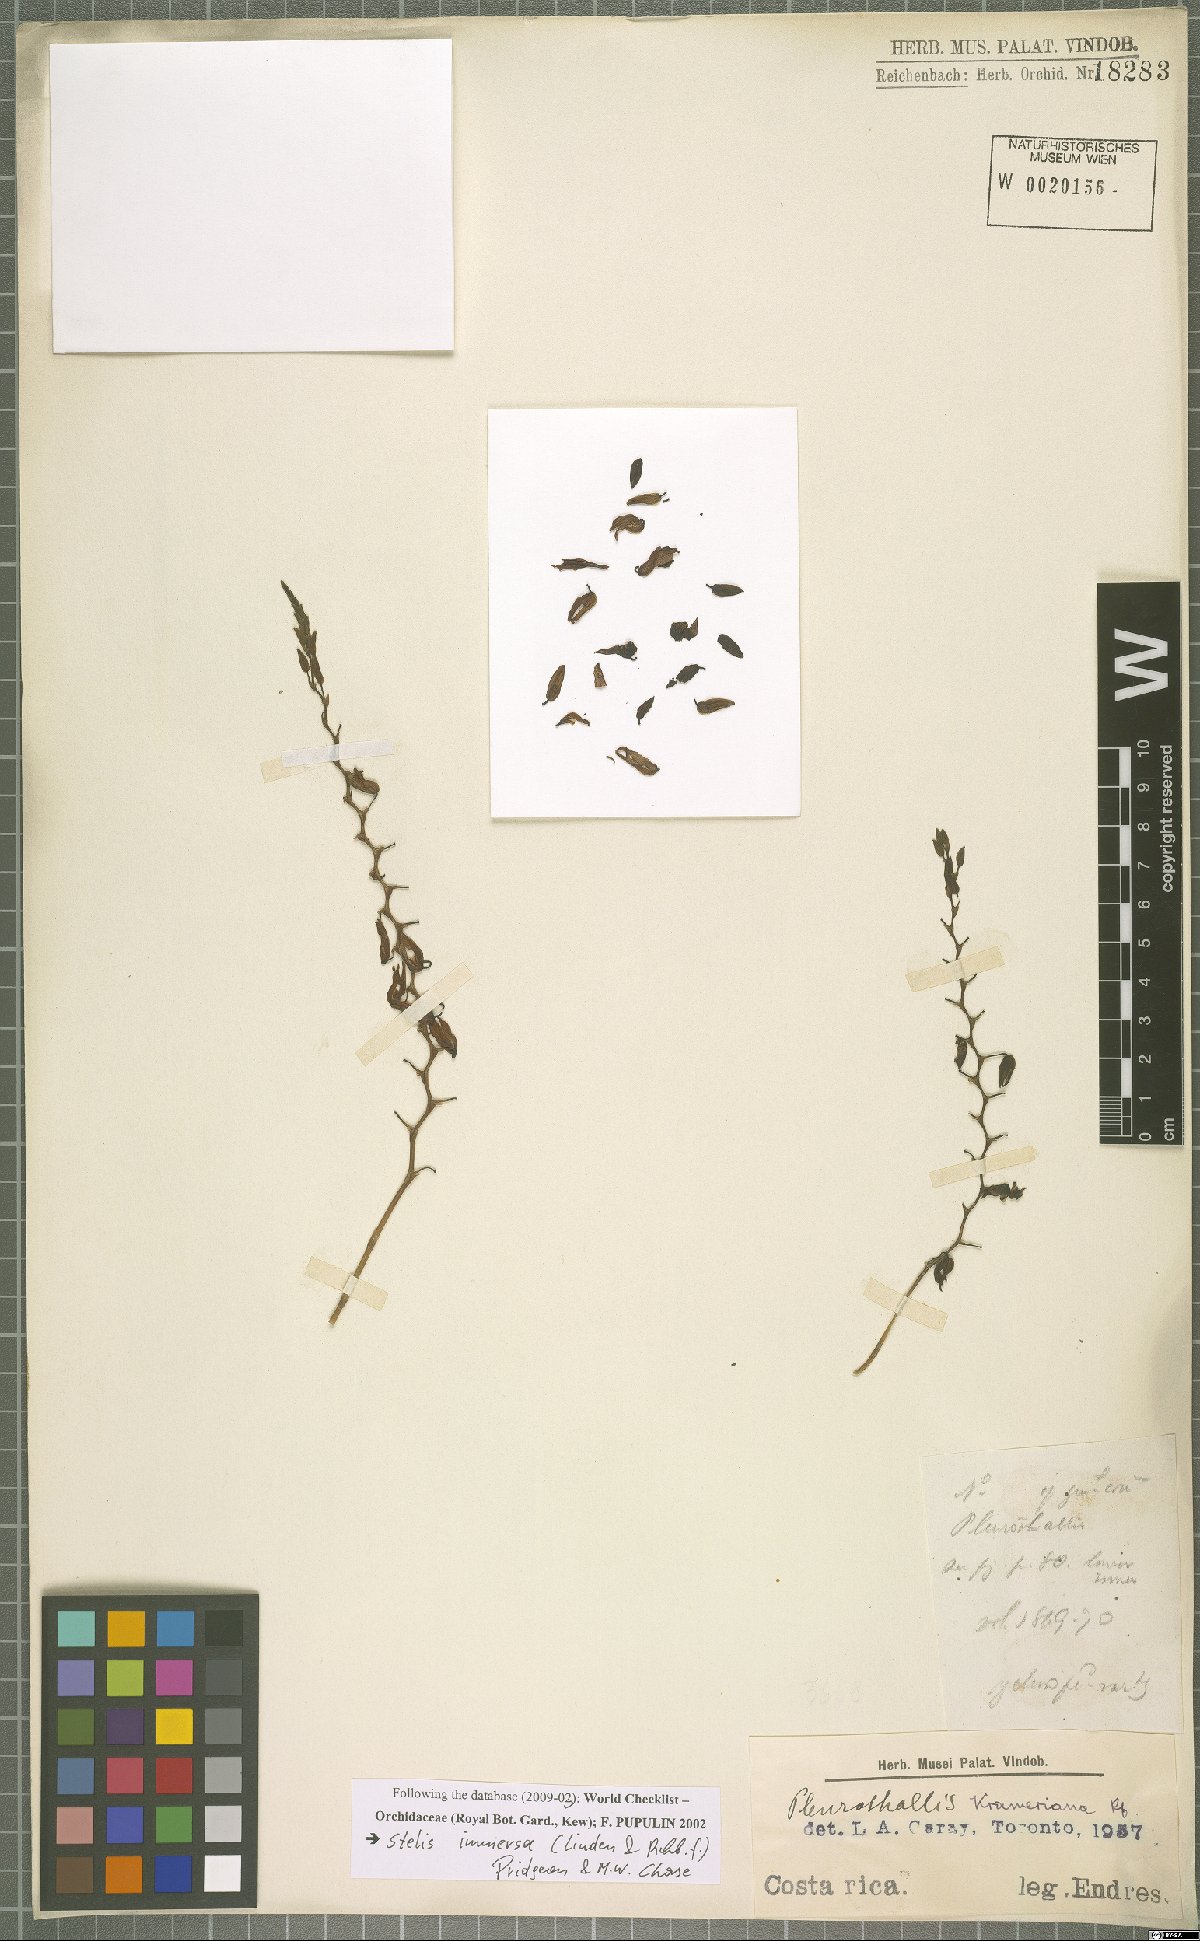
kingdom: Plantae
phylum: Tracheophyta
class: Liliopsida
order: Asparagales
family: Orchidaceae
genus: Stelis
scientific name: Stelis immersa
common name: Sunken pleurothallis
